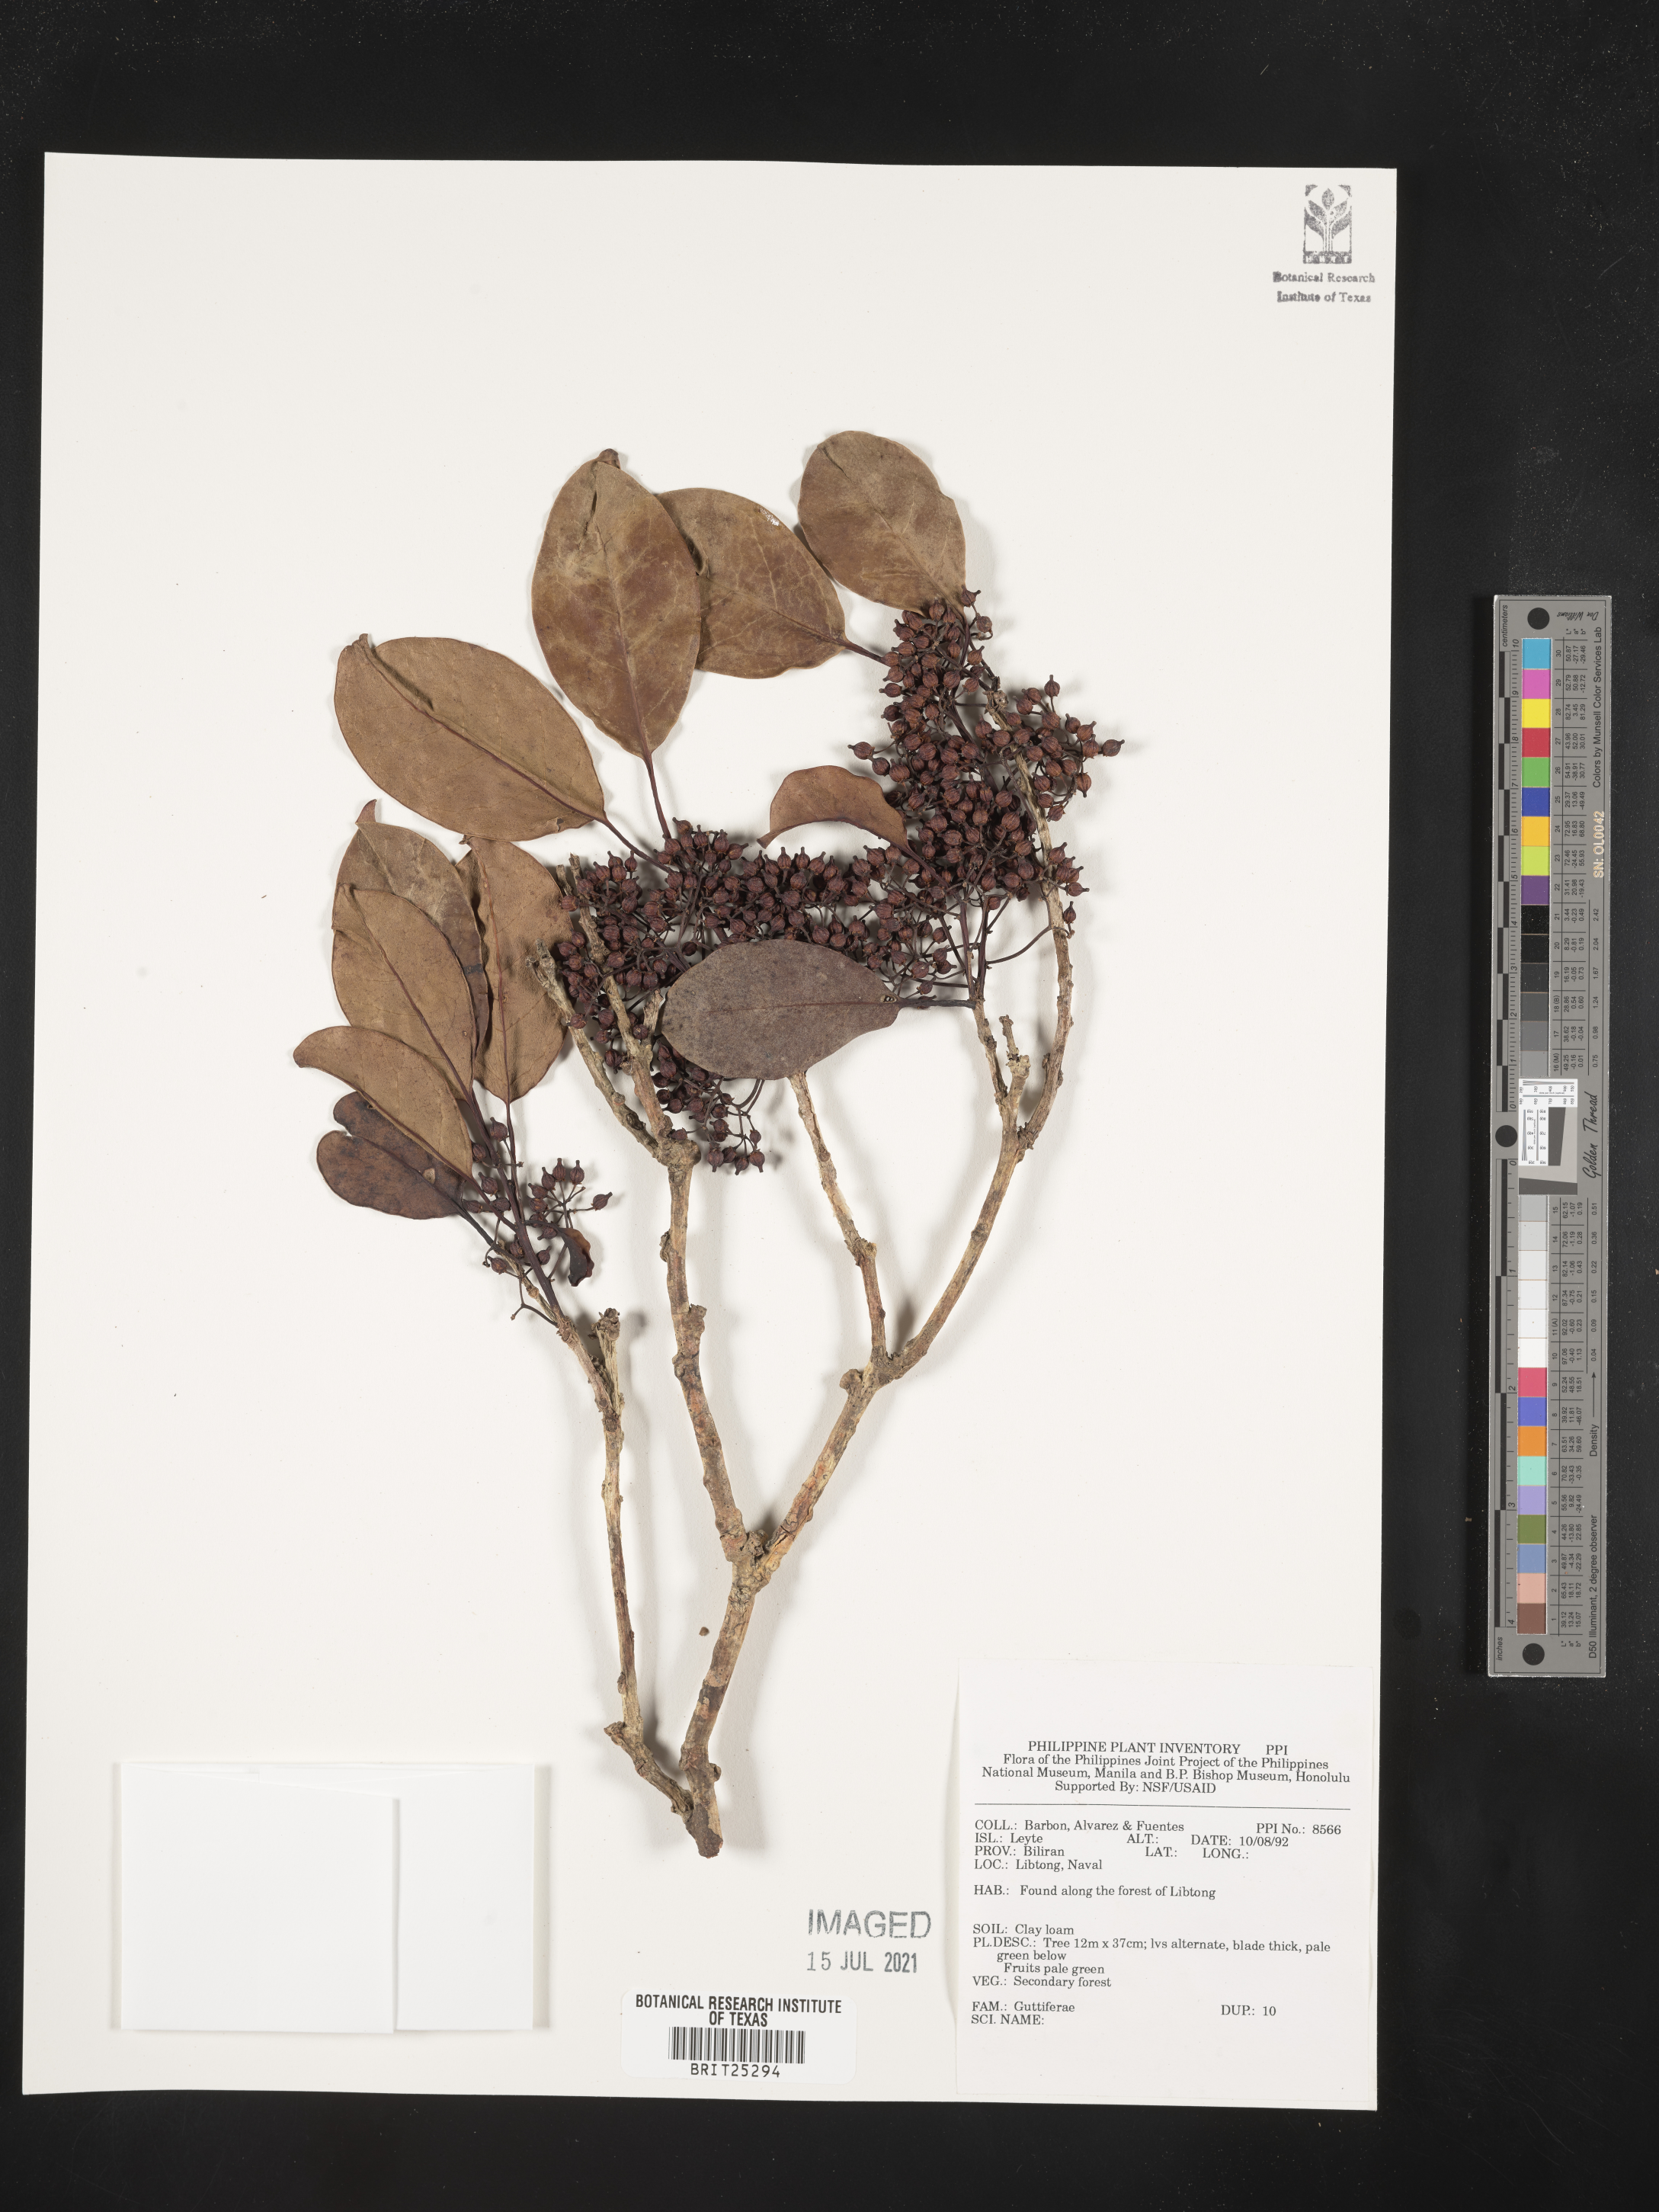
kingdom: Plantae
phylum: Tracheophyta
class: Magnoliopsida
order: Malpighiales
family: Hypericaceae
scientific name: Hypericaceae
